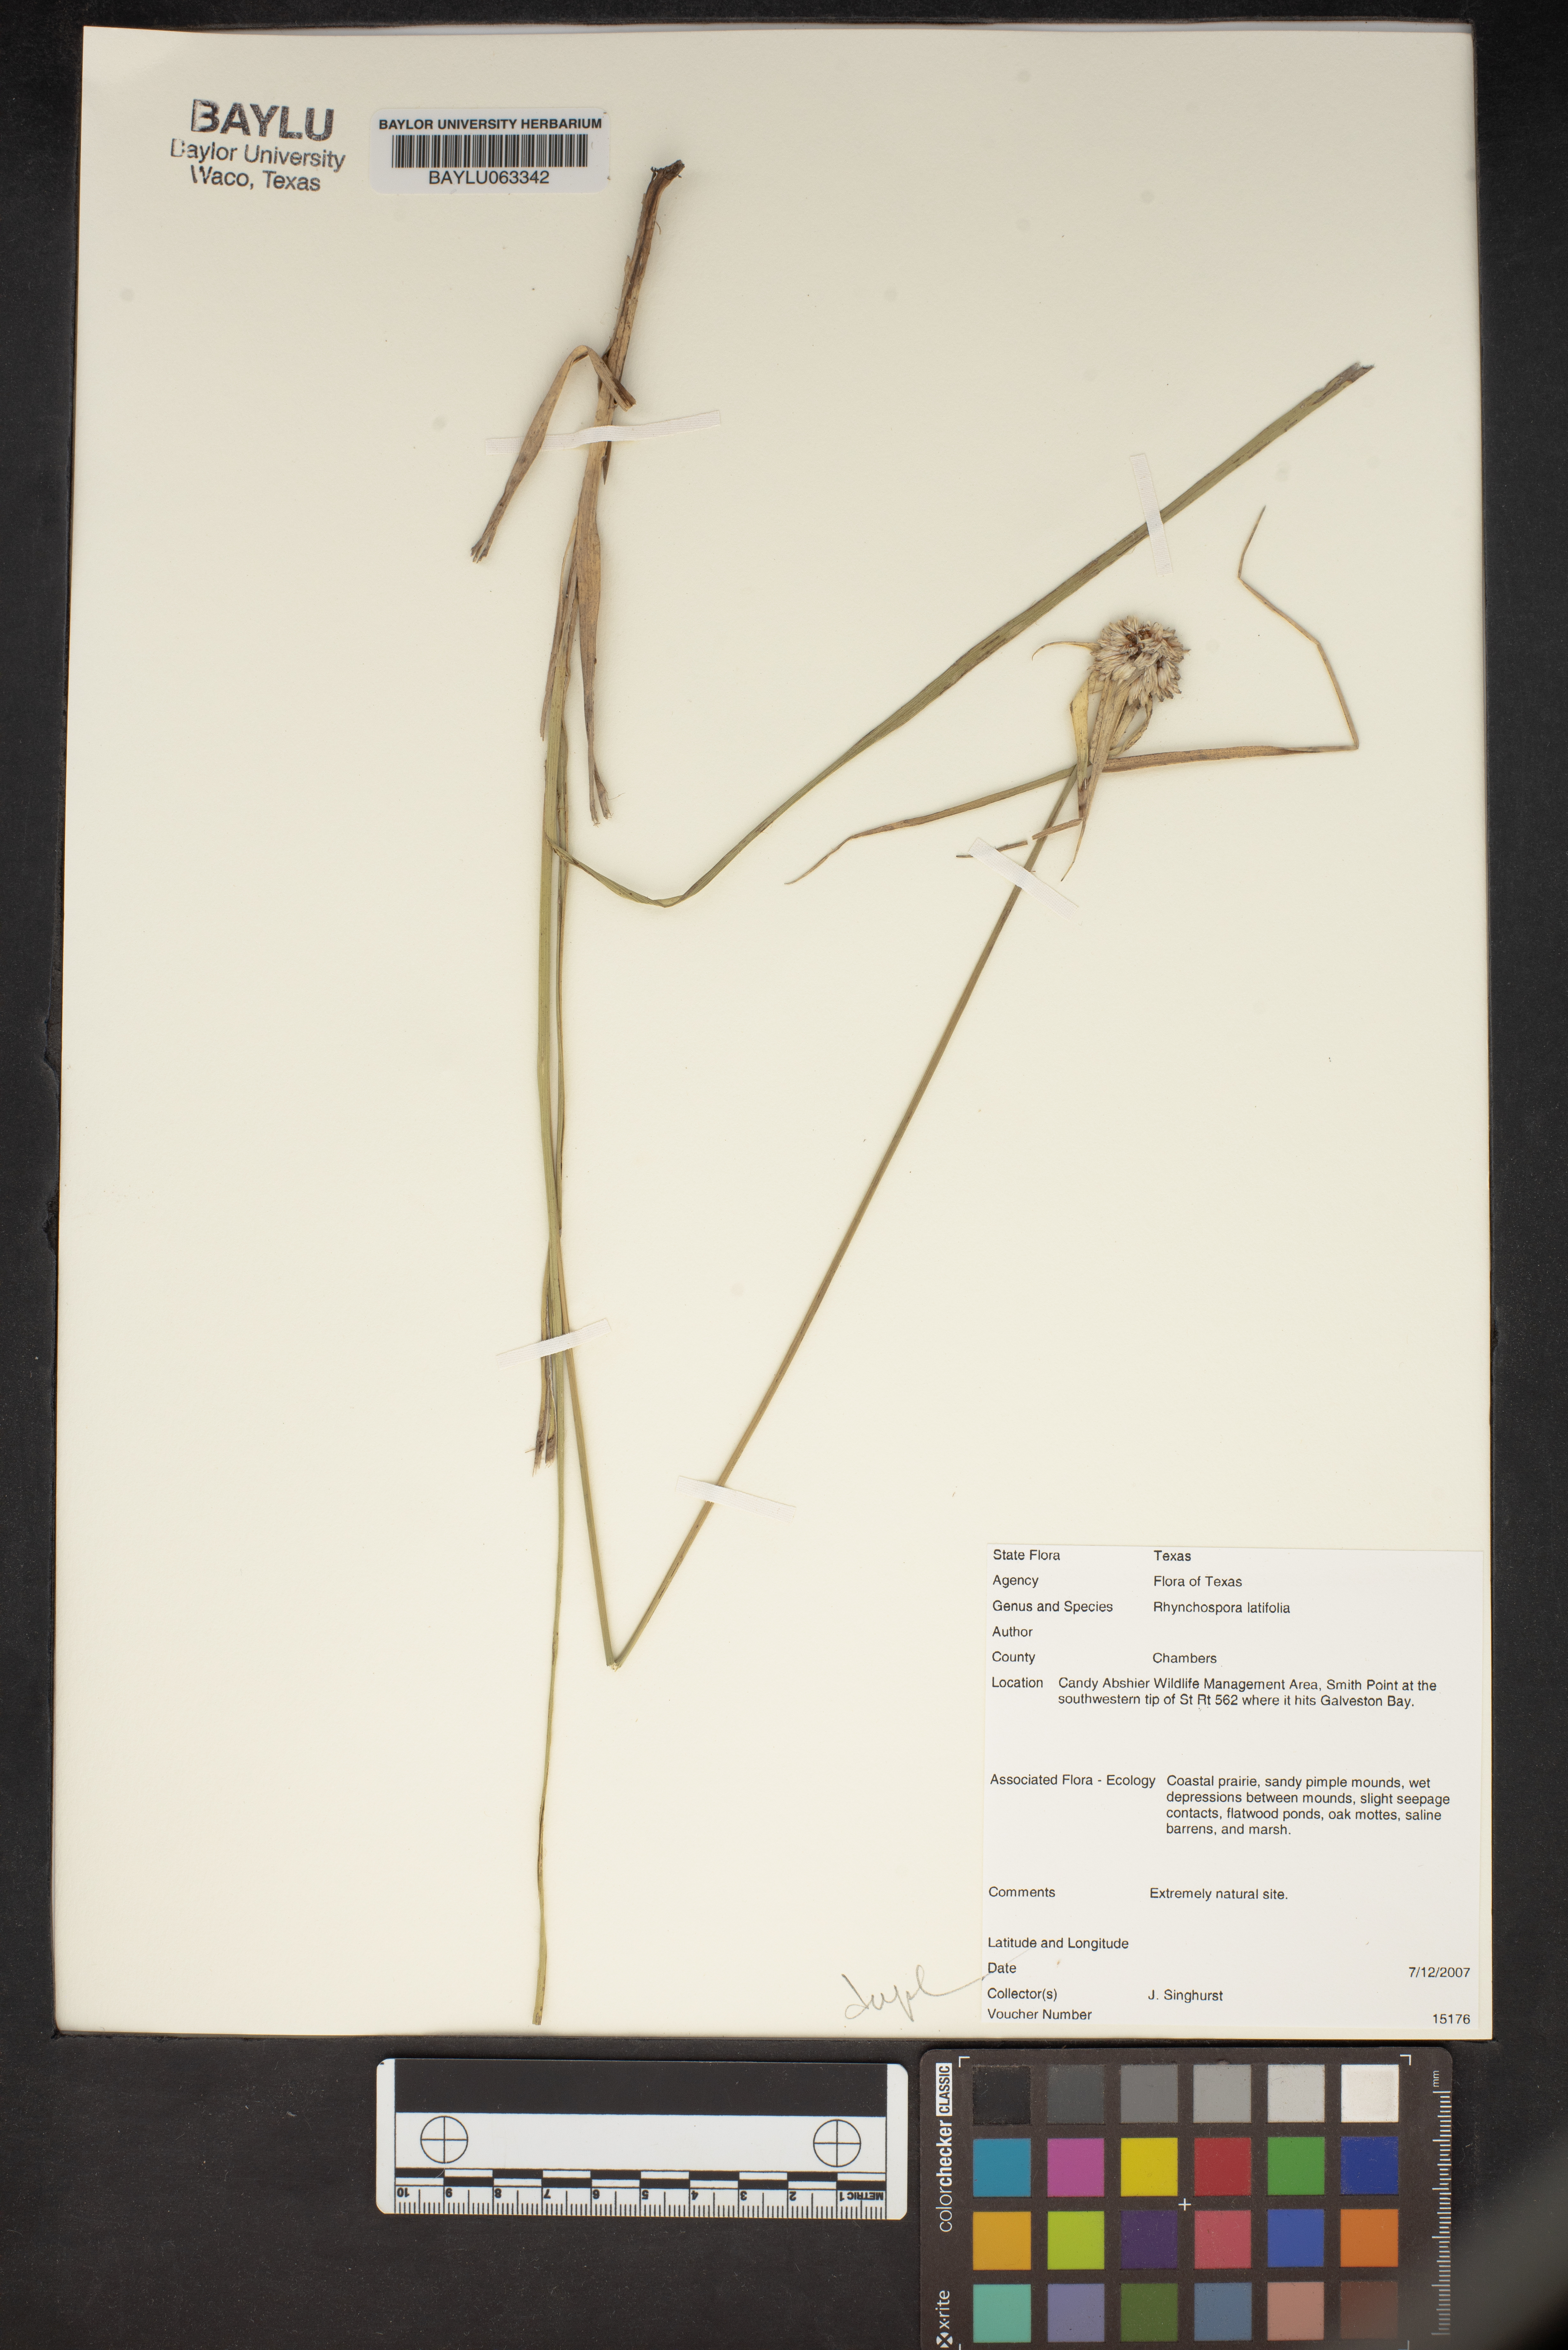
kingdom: Plantae
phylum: Tracheophyta
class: Liliopsida
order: Poales
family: Cyperaceae
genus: Rhynchospora
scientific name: Rhynchospora latifolia
